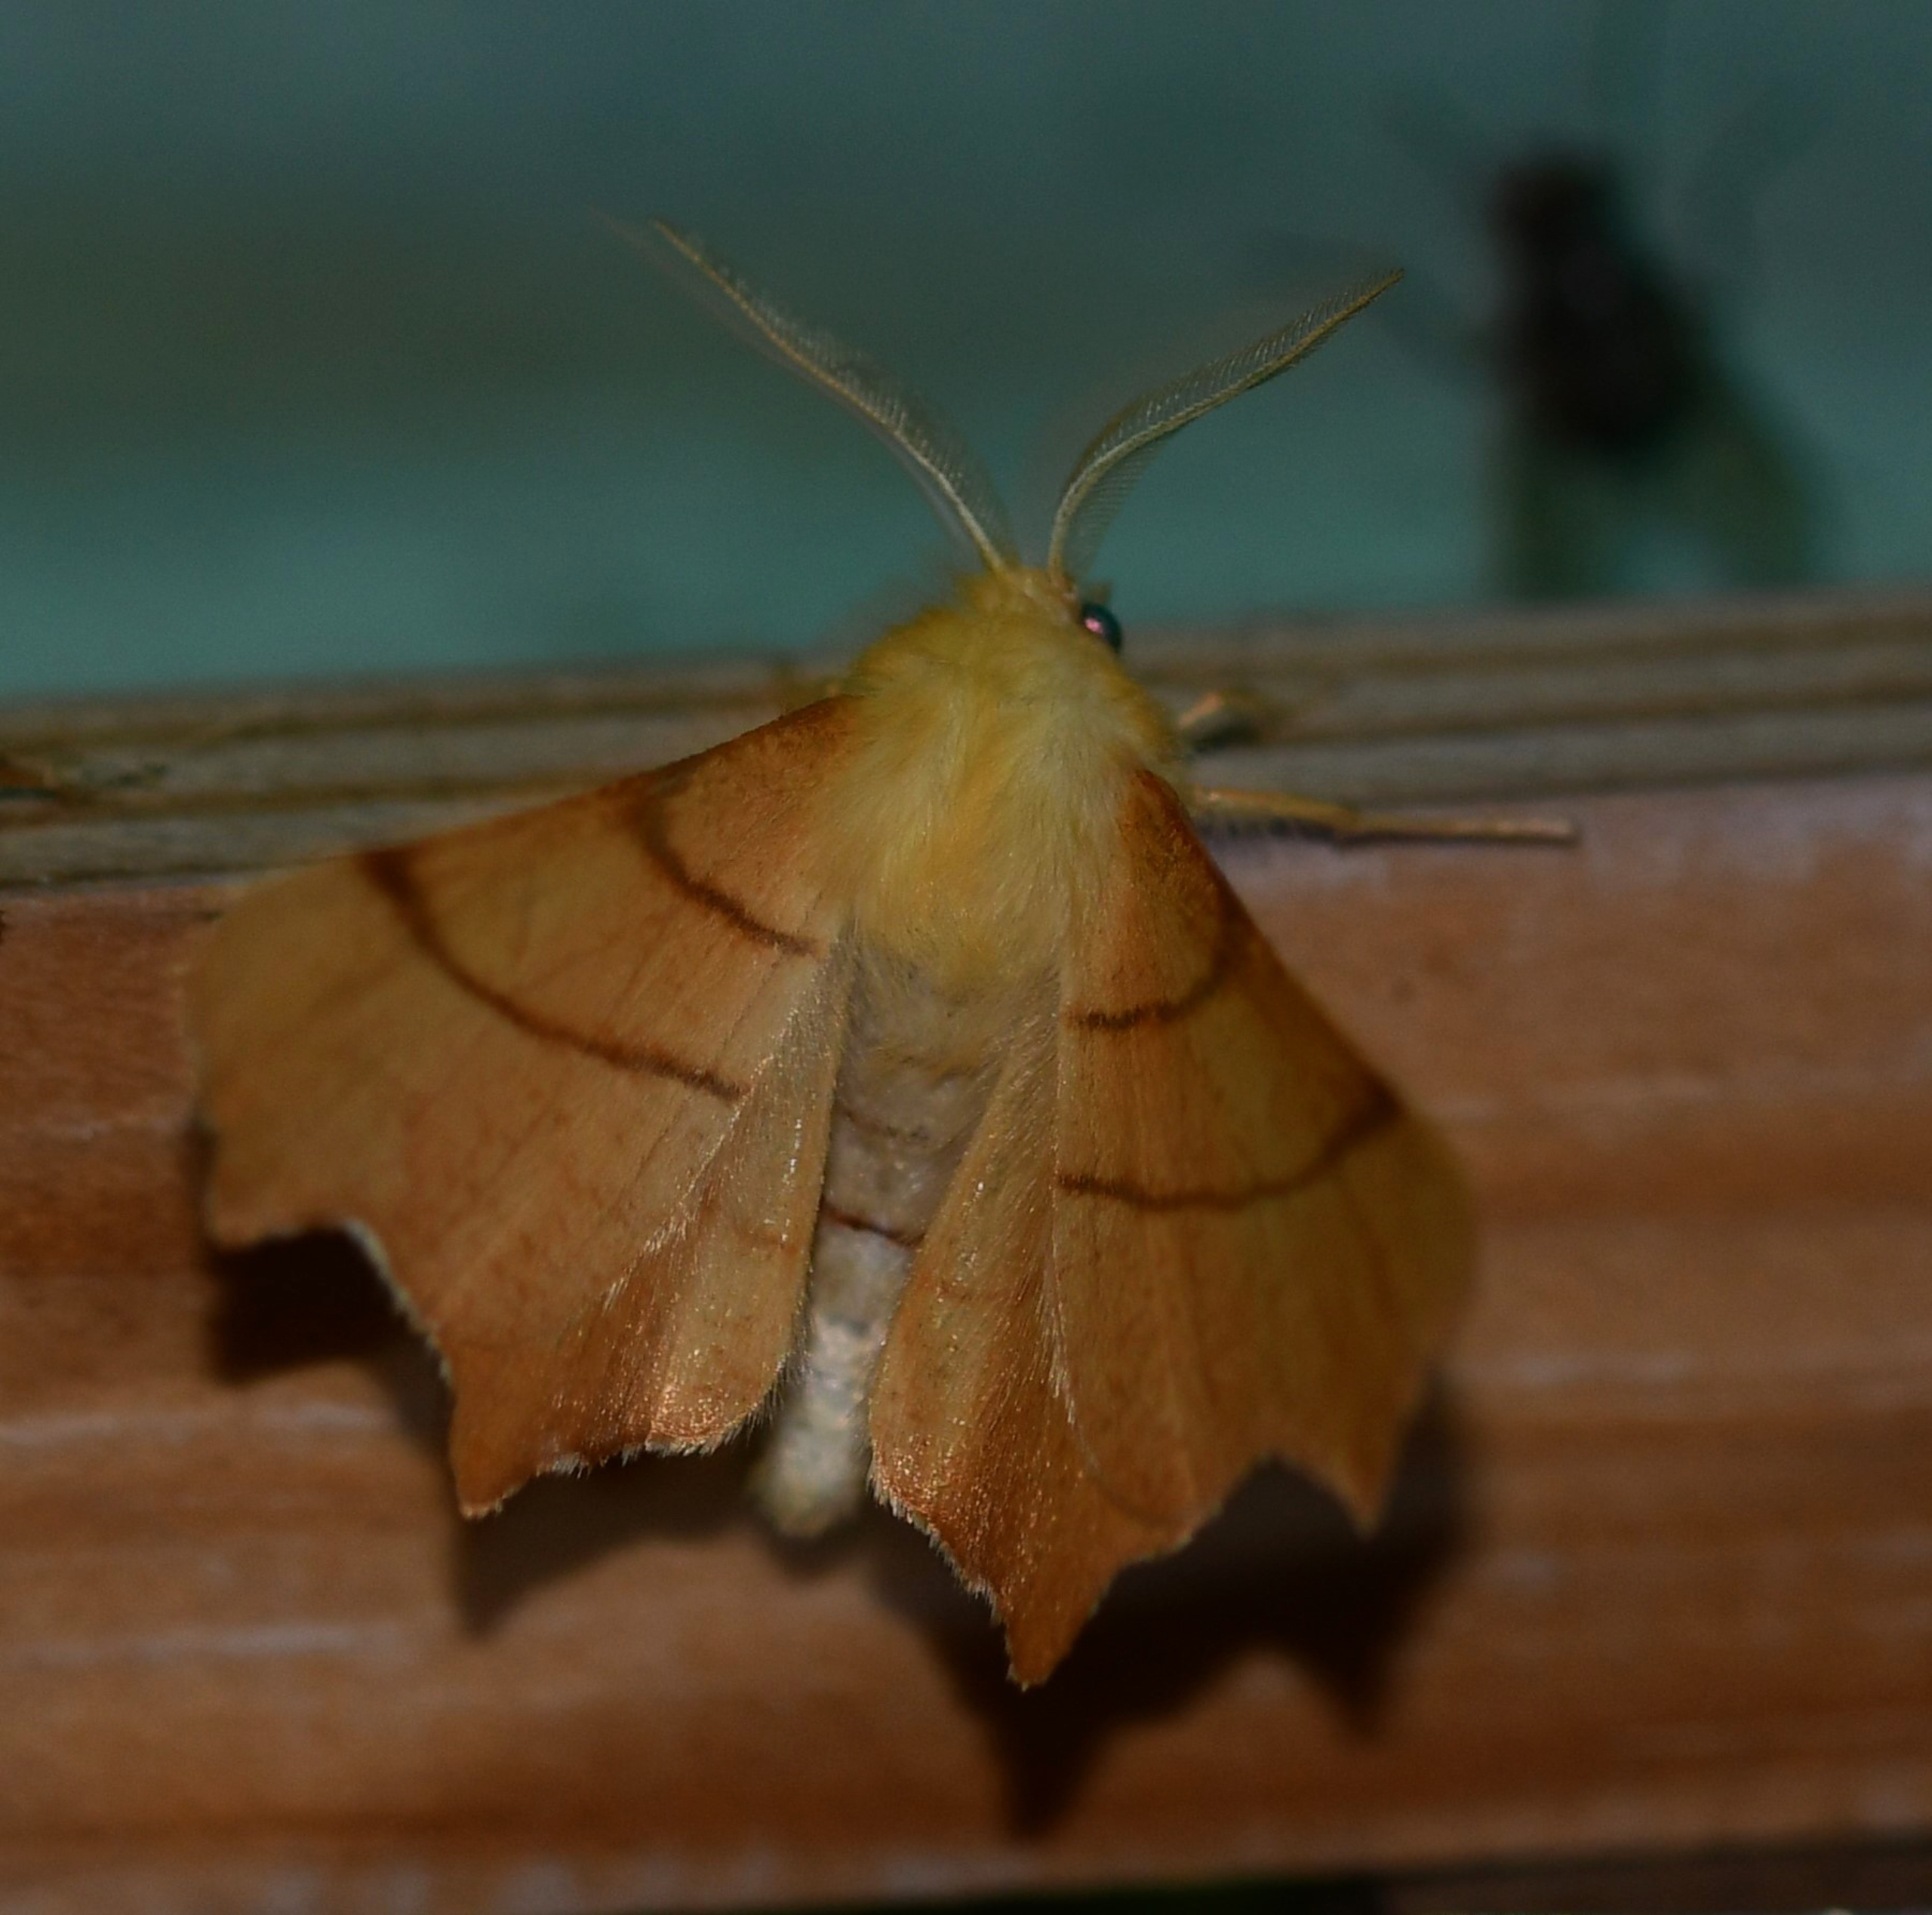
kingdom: Animalia
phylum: Arthropoda
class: Insecta
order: Lepidoptera
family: Geometridae
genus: Ennomos
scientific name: Ennomos erosaria
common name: Ege-tandmåler
